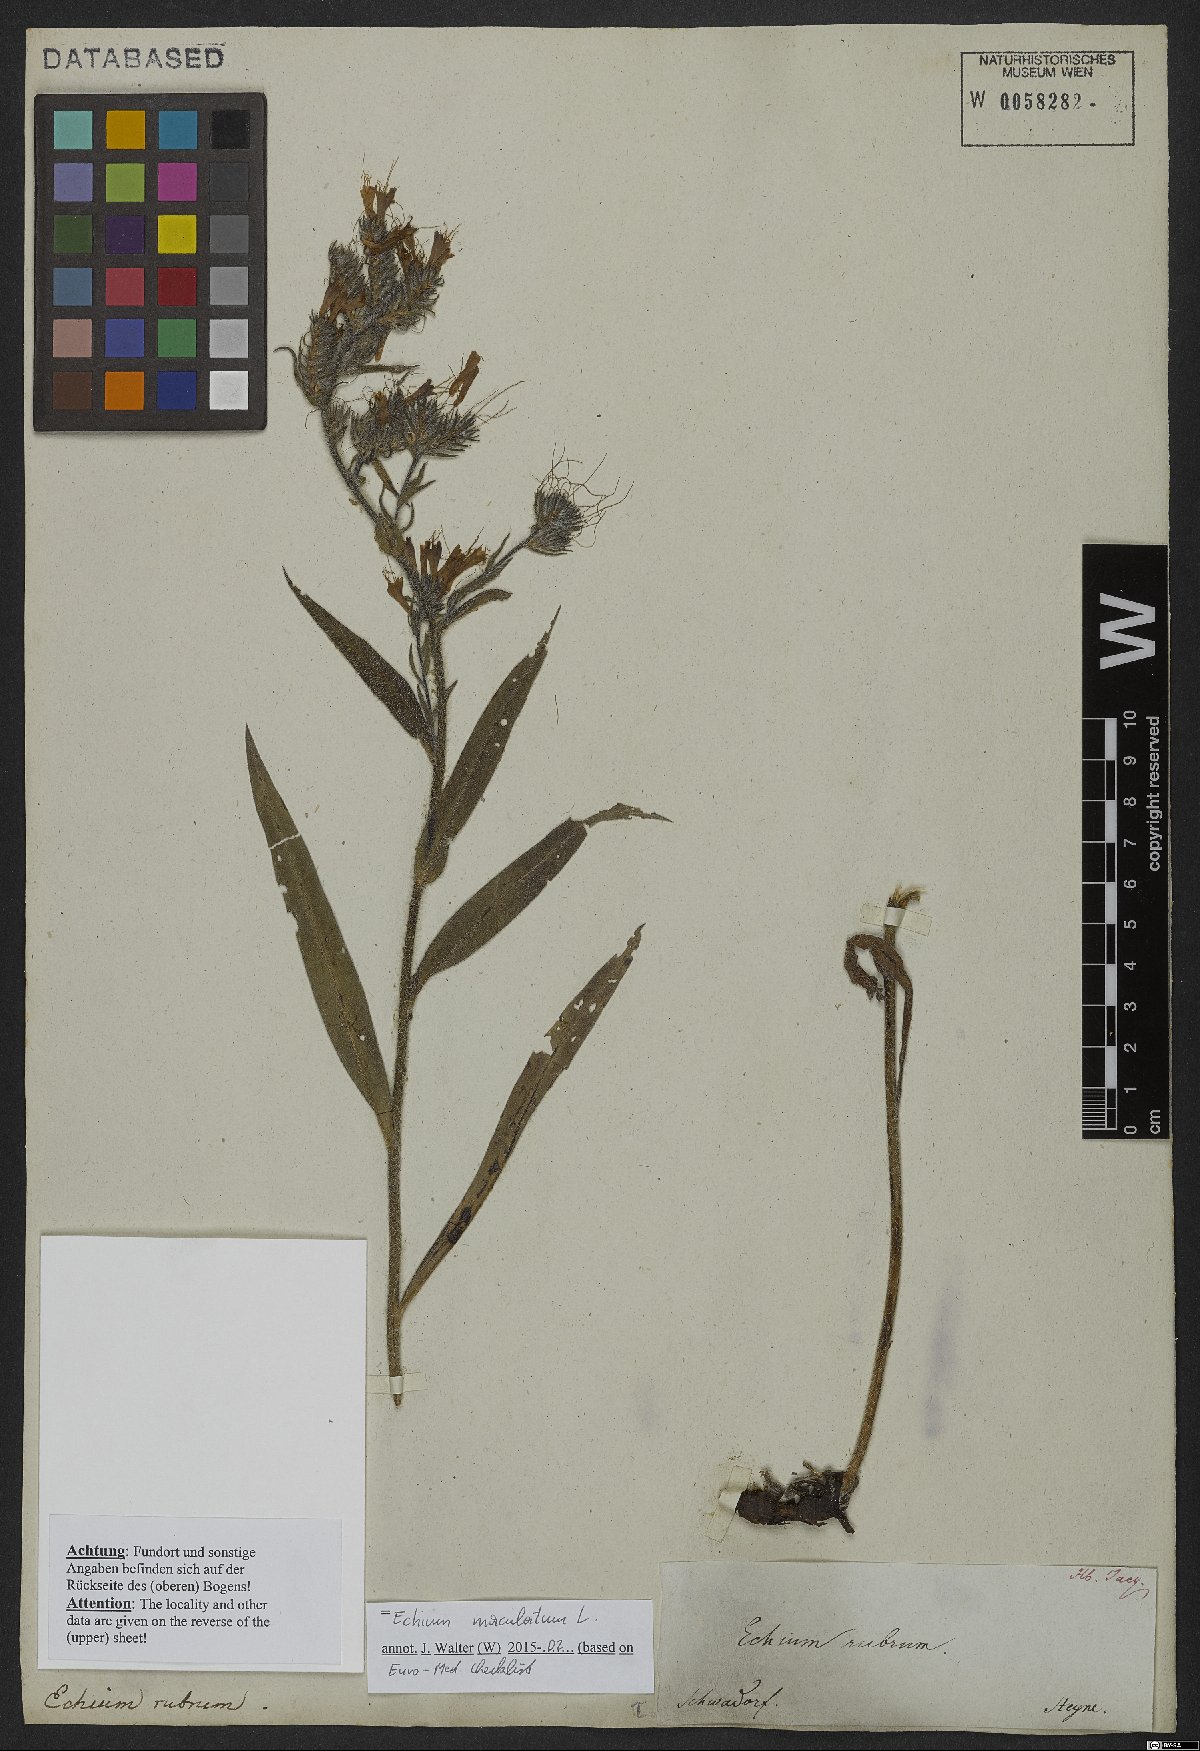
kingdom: Plantae
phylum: Tracheophyta
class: Magnoliopsida
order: Boraginales
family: Boraginaceae
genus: Pontechium
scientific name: Pontechium maculatum
